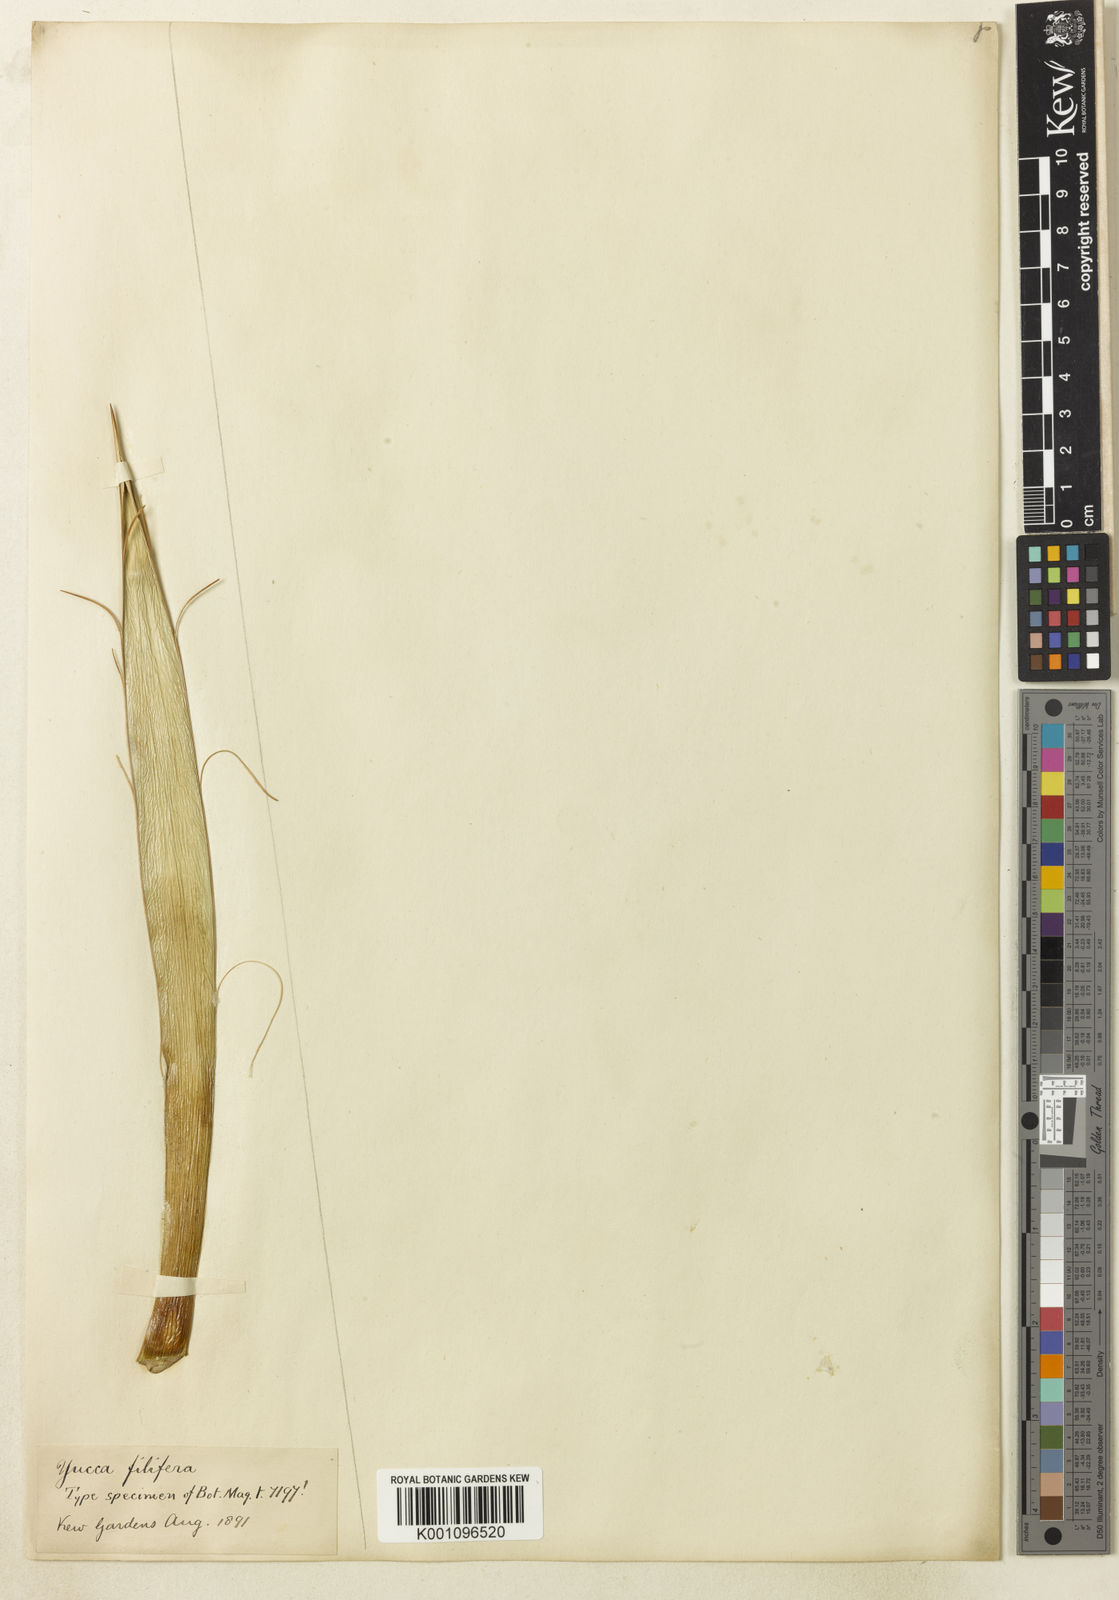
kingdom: Plantae
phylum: Tracheophyta
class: Liliopsida
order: Asparagales
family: Asparagaceae
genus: Yucca
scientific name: Yucca filifera
